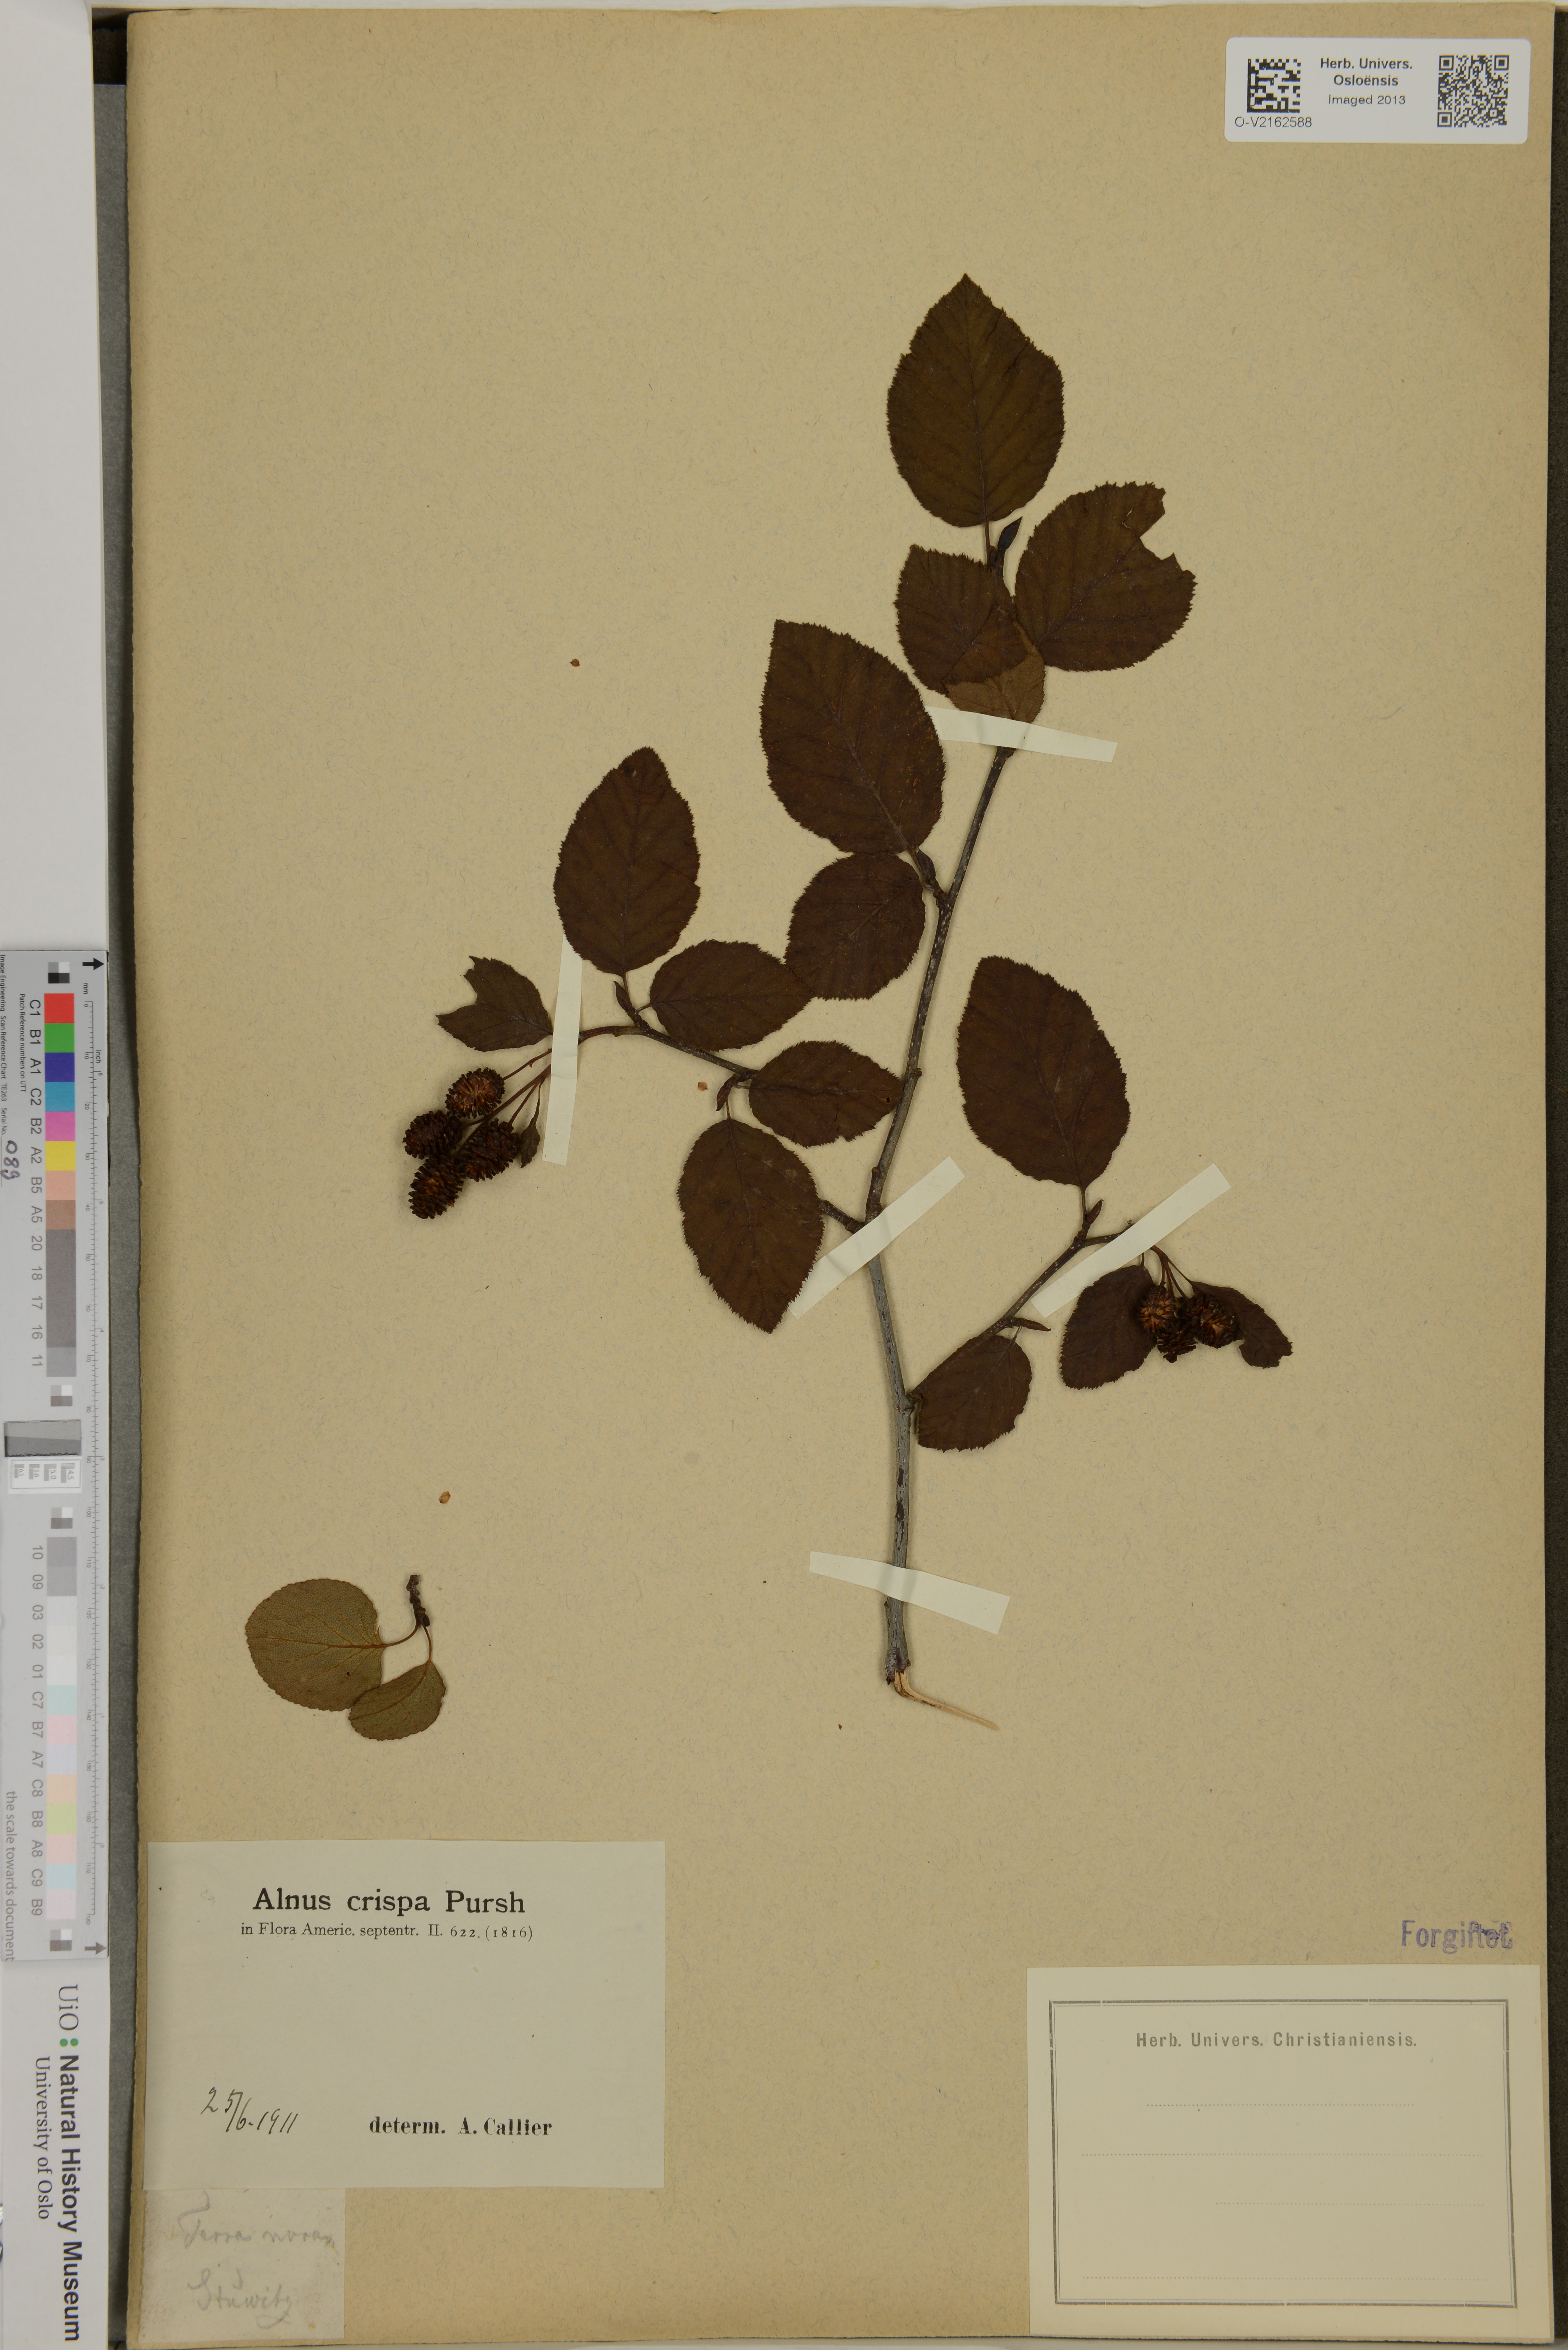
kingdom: Plantae
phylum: Tracheophyta
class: Magnoliopsida
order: Fagales
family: Betulaceae
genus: Alnus
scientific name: Alnus alnobetula
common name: Green alder
